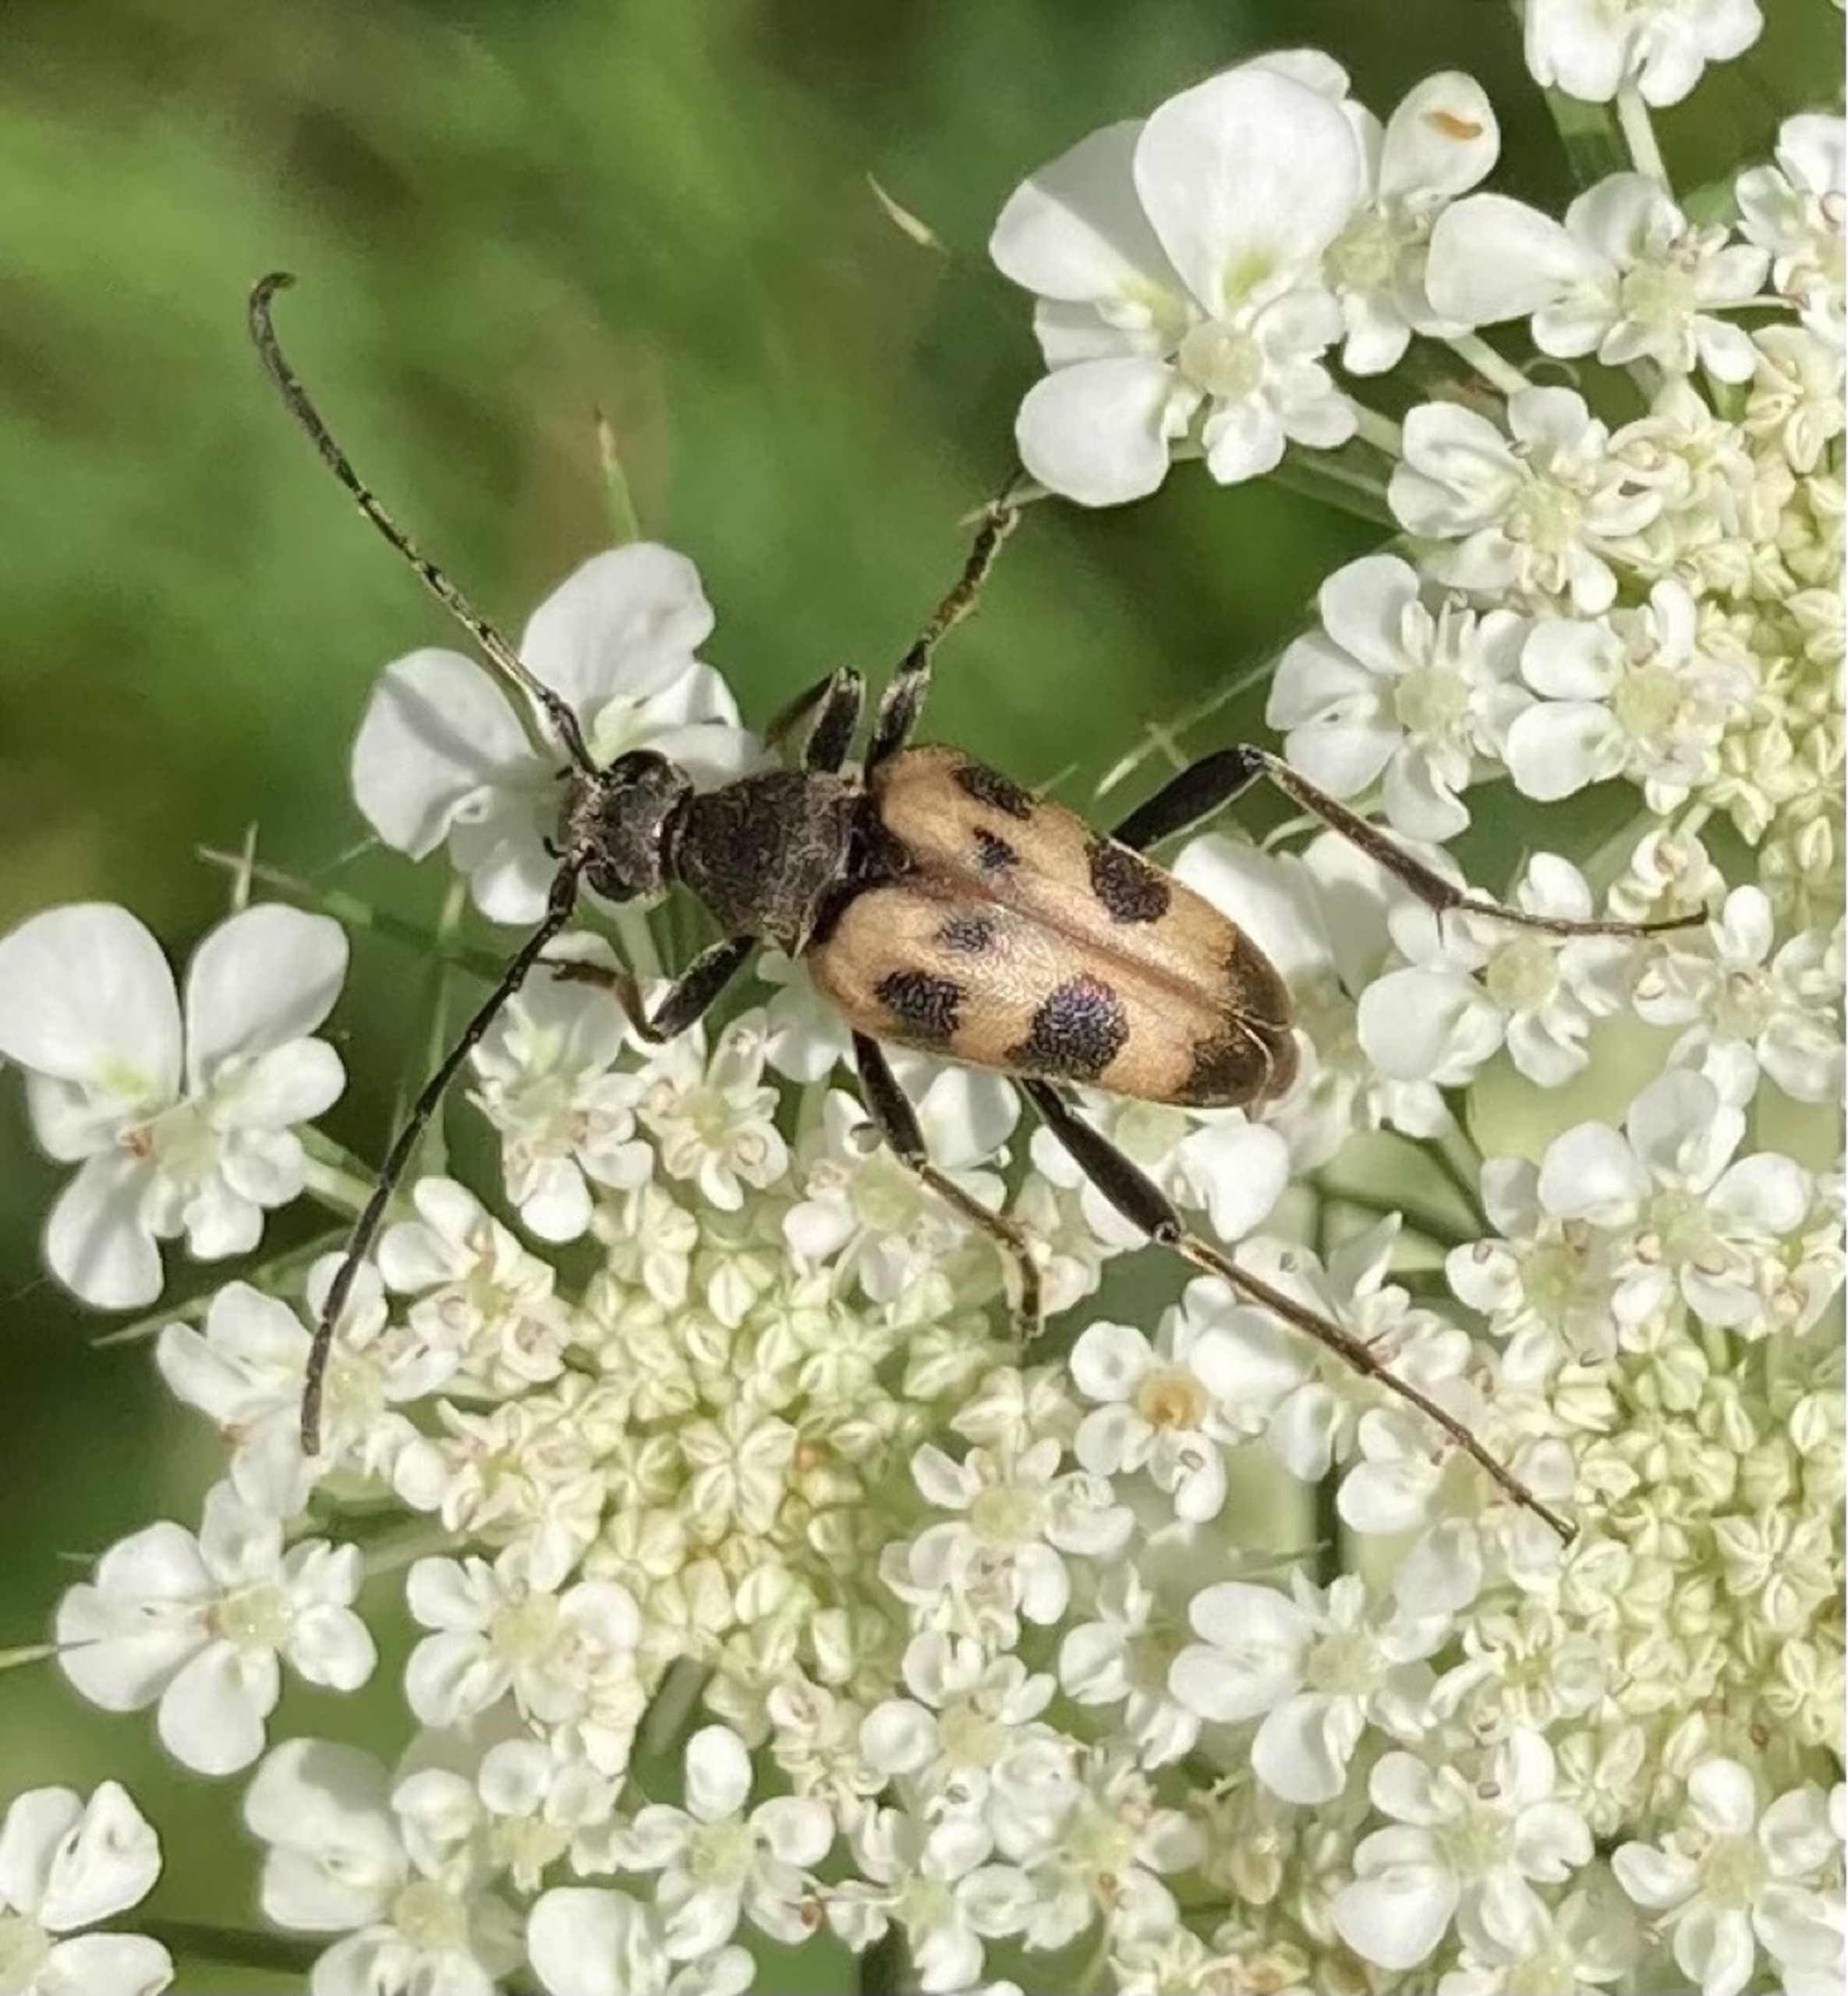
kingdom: Animalia
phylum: Arthropoda
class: Insecta
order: Coleoptera
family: Cerambycidae
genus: Pachytodes
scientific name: Pachytodes cerambyciformis
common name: Jysk blomsterbuk
